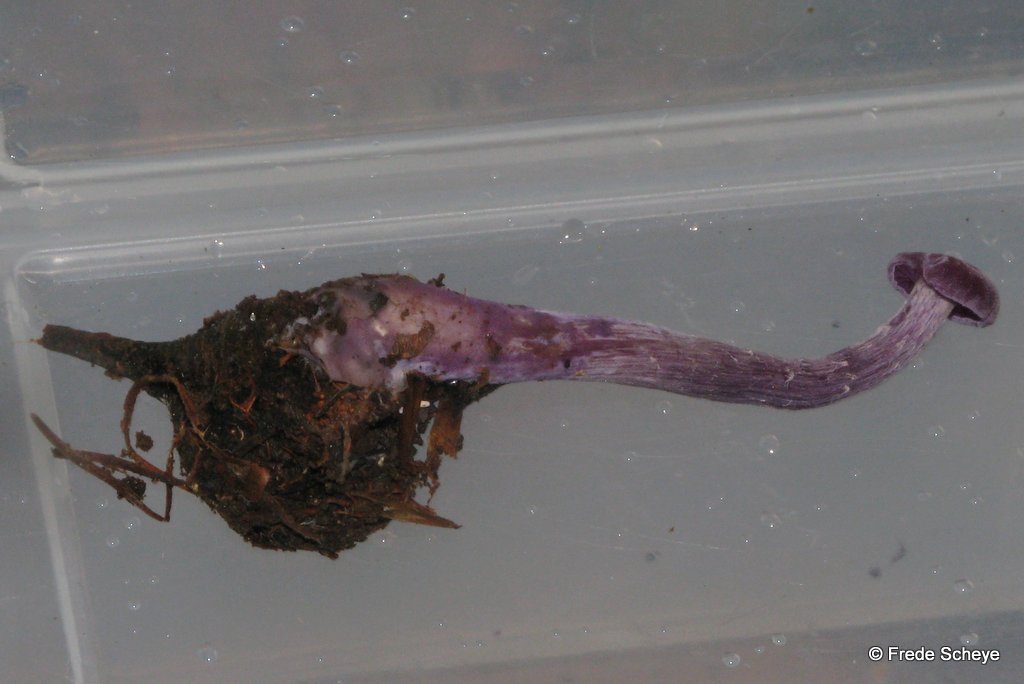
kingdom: Fungi
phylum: Basidiomycota
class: Agaricomycetes
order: Agaricales
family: Hydnangiaceae
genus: Laccaria
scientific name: Laccaria amethystina
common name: violet ametysthat
